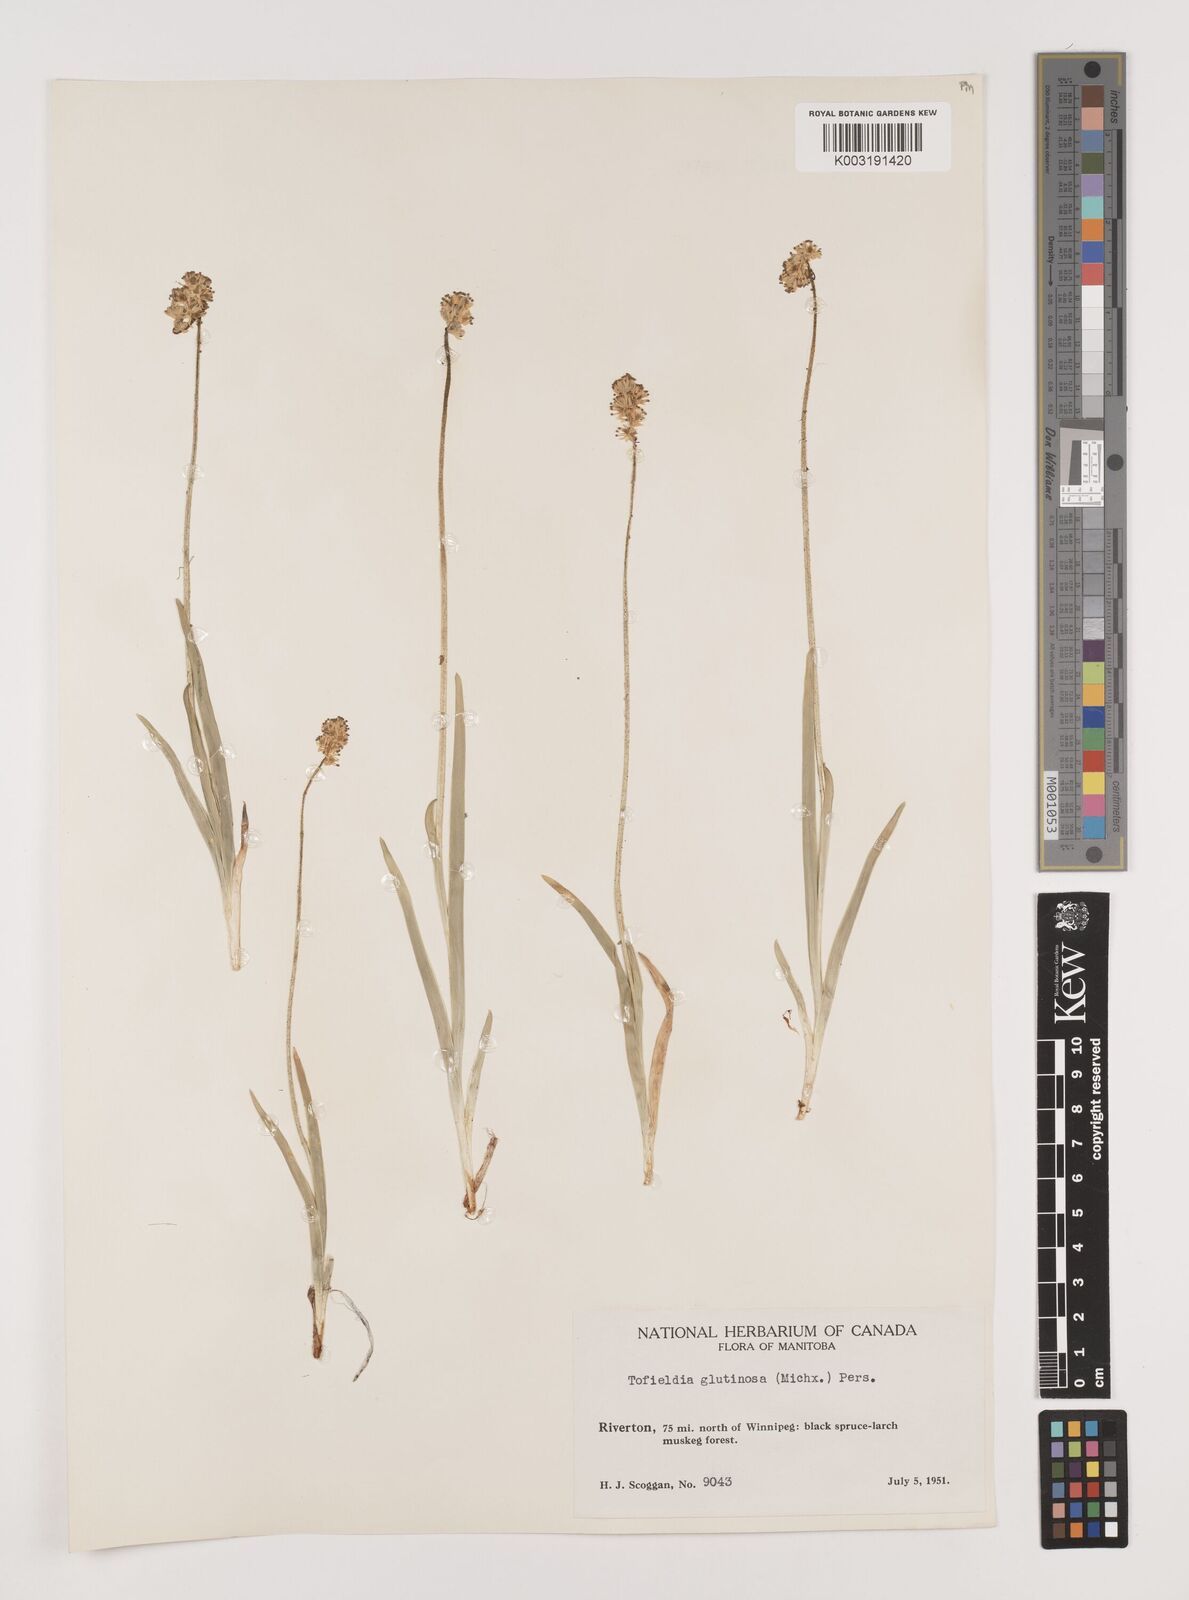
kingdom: Plantae
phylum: Tracheophyta
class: Liliopsida
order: Alismatales
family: Tofieldiaceae
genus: Triantha
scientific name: Triantha glutinosa
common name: Glutinous tofieldia
